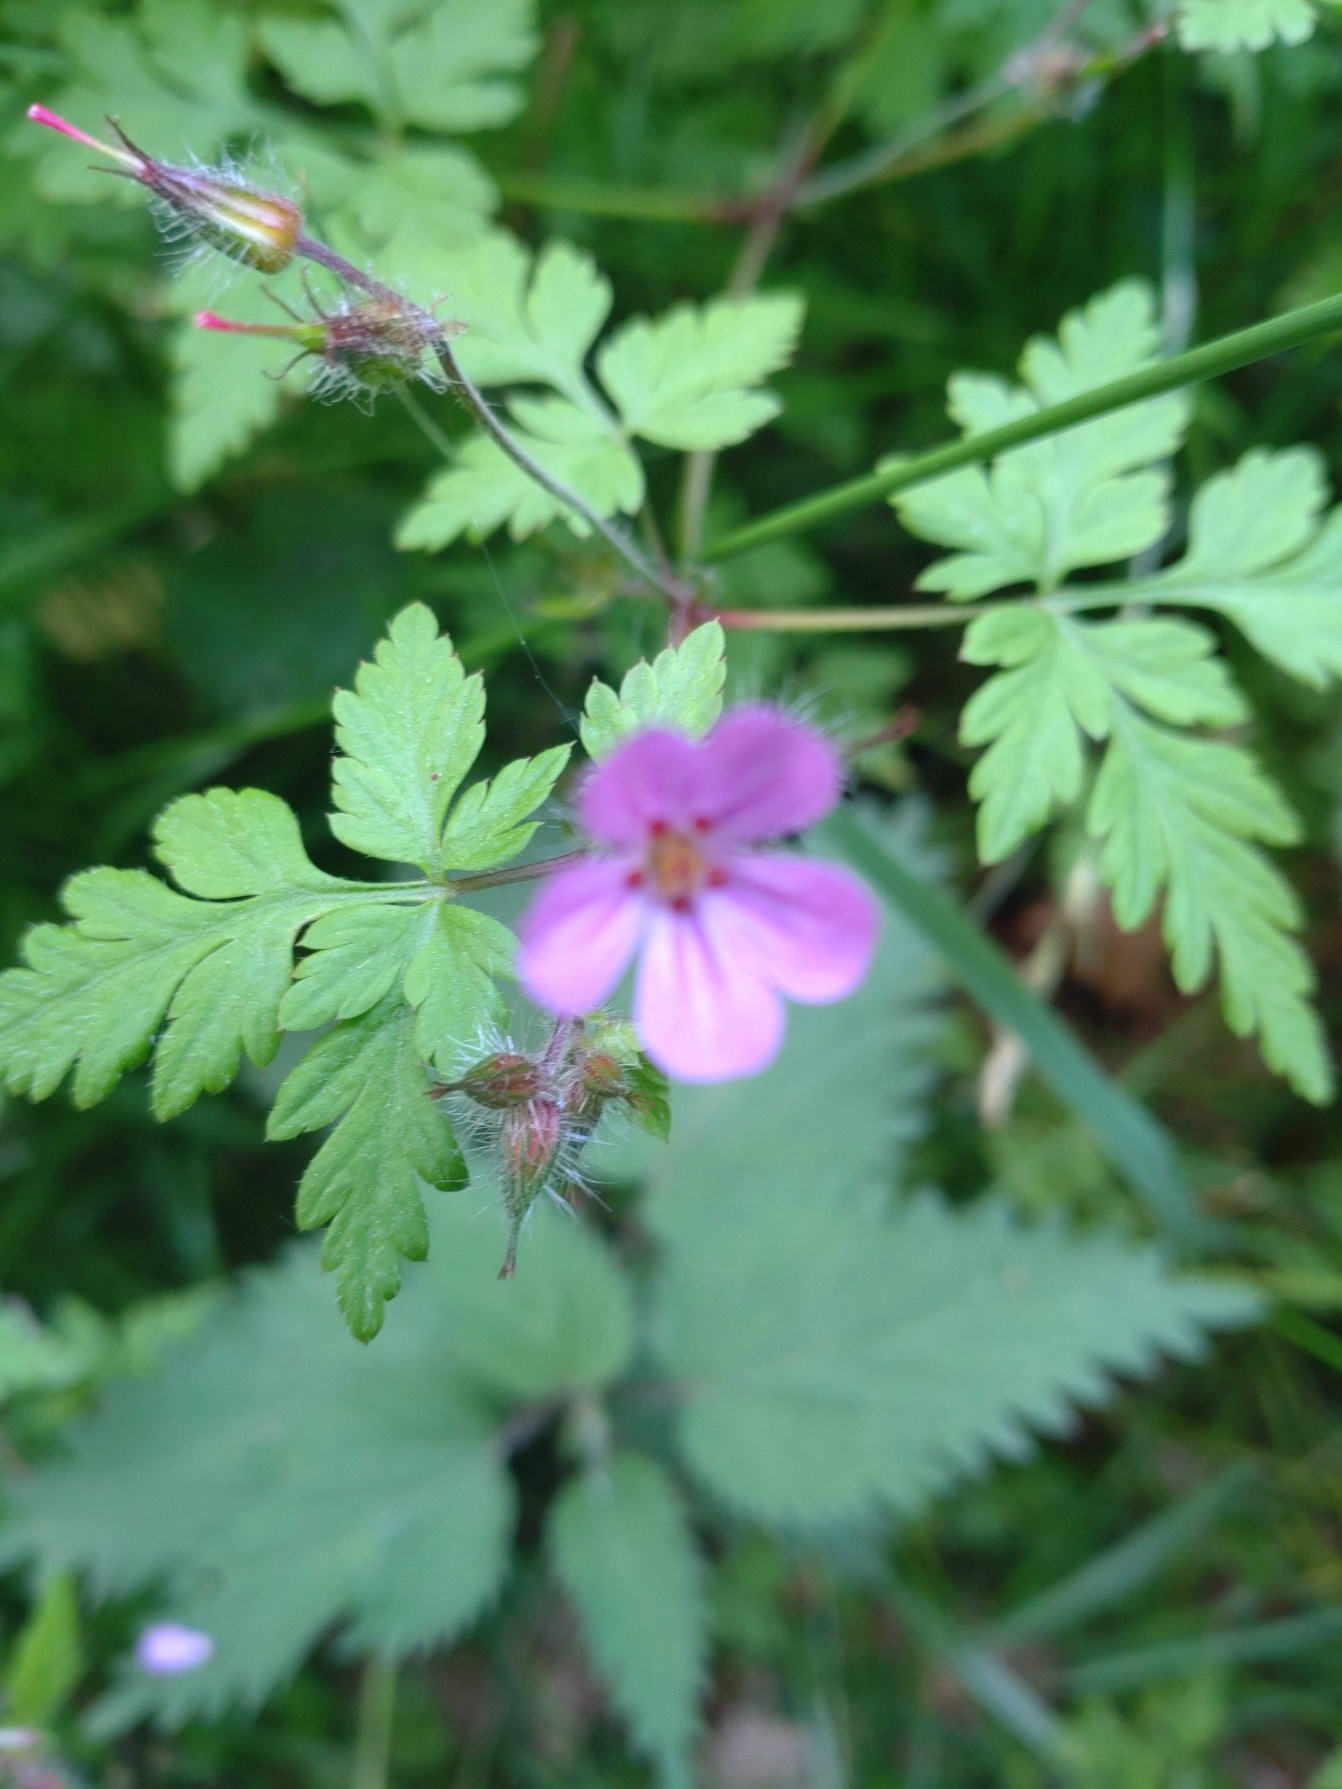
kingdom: Plantae
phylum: Tracheophyta
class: Magnoliopsida
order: Geraniales
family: Geraniaceae
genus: Geranium
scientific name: Geranium robertianum
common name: Stinkende storkenæb
